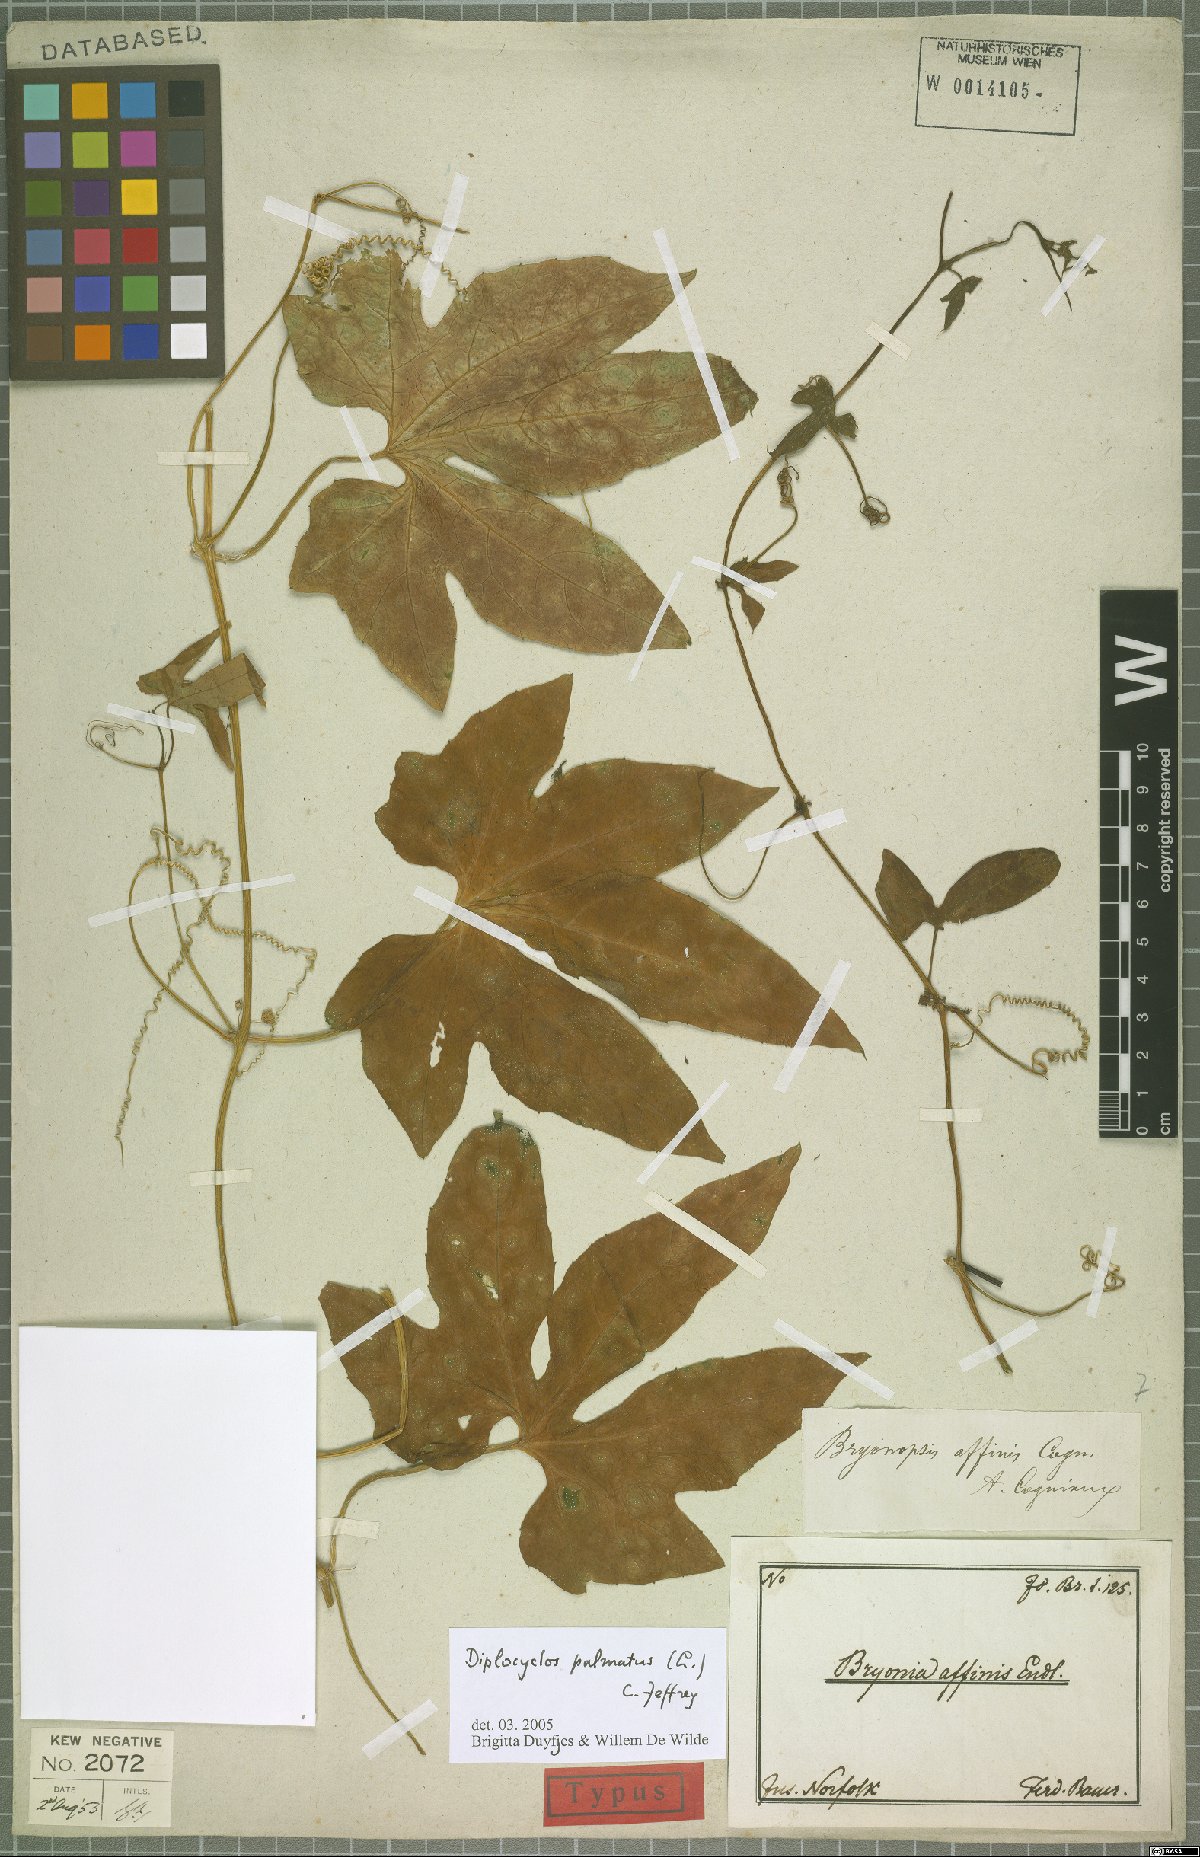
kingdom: Plantae
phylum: Tracheophyta
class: Magnoliopsida
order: Cucurbitales
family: Cucurbitaceae
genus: Diplocyclos
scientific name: Diplocyclos palmatus
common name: Striped-cucumber
